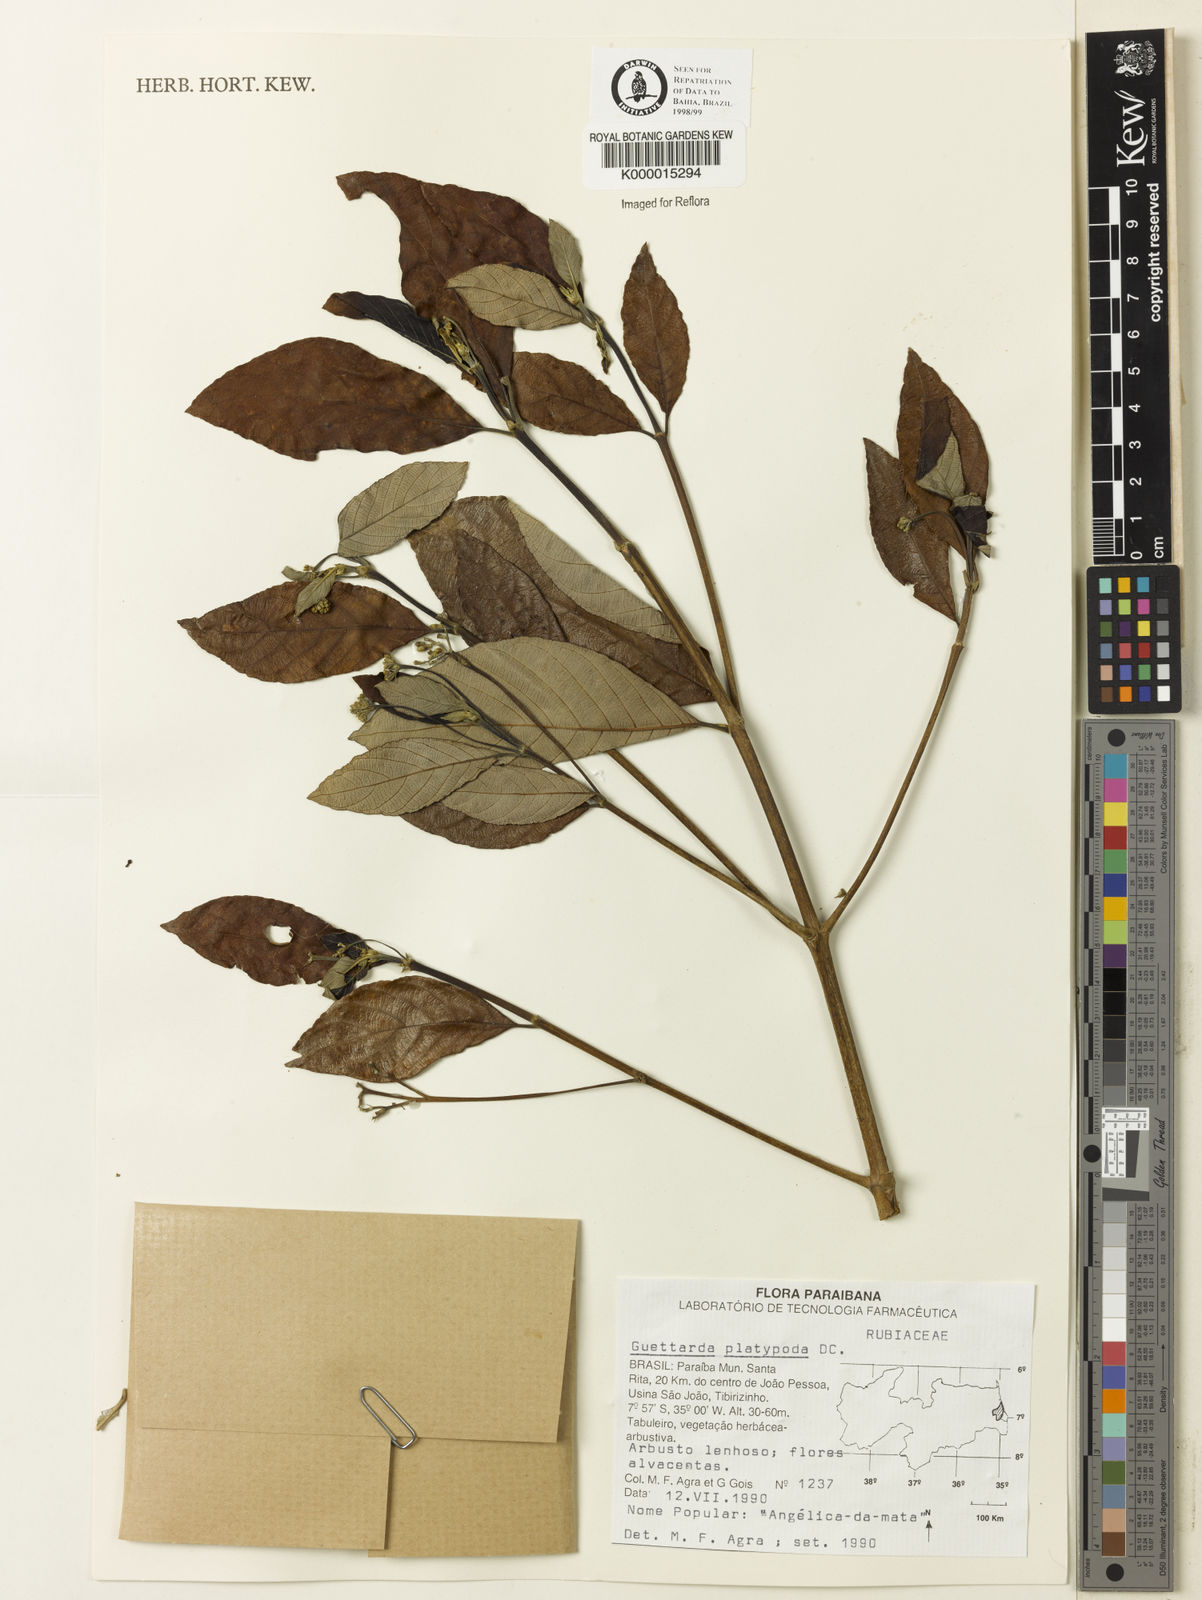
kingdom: Plantae
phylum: Tracheophyta
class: Magnoliopsida
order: Gentianales
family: Rubiaceae
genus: Guettarda
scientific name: Guettarda platypoda
